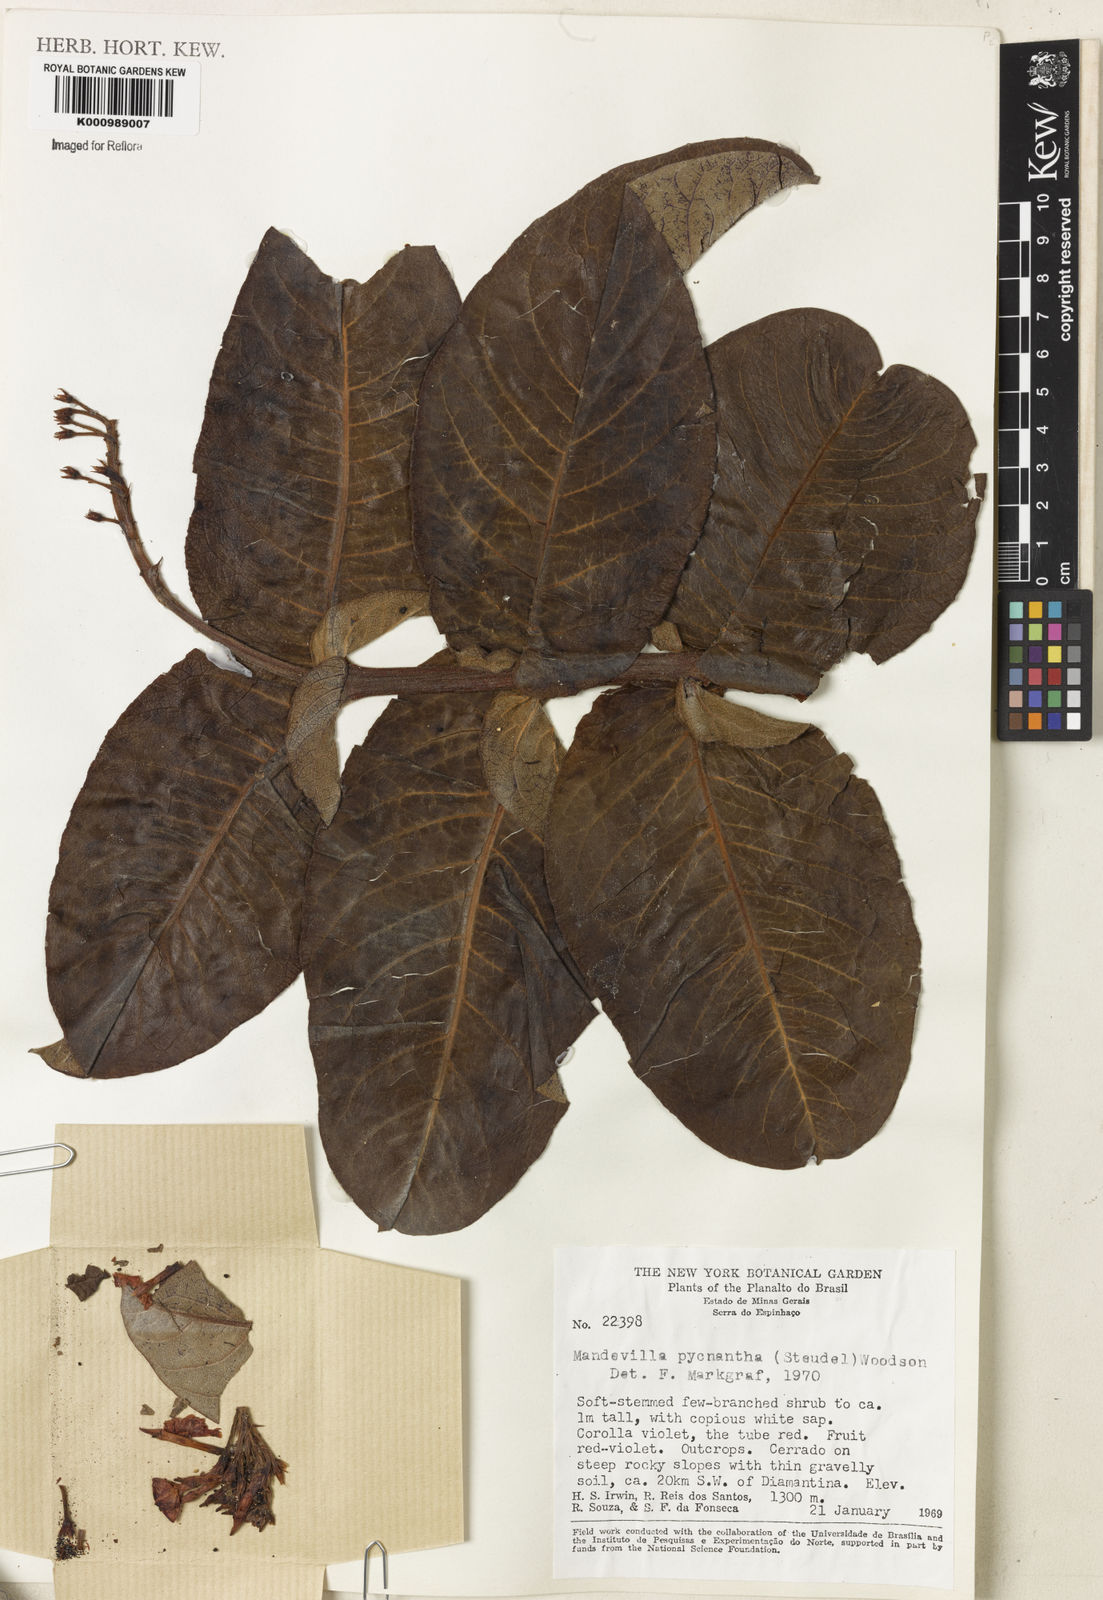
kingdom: Plantae
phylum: Tracheophyta
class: Magnoliopsida
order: Gentianales
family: Apocynaceae
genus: Mandevilla
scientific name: Mandevilla pycnantha
